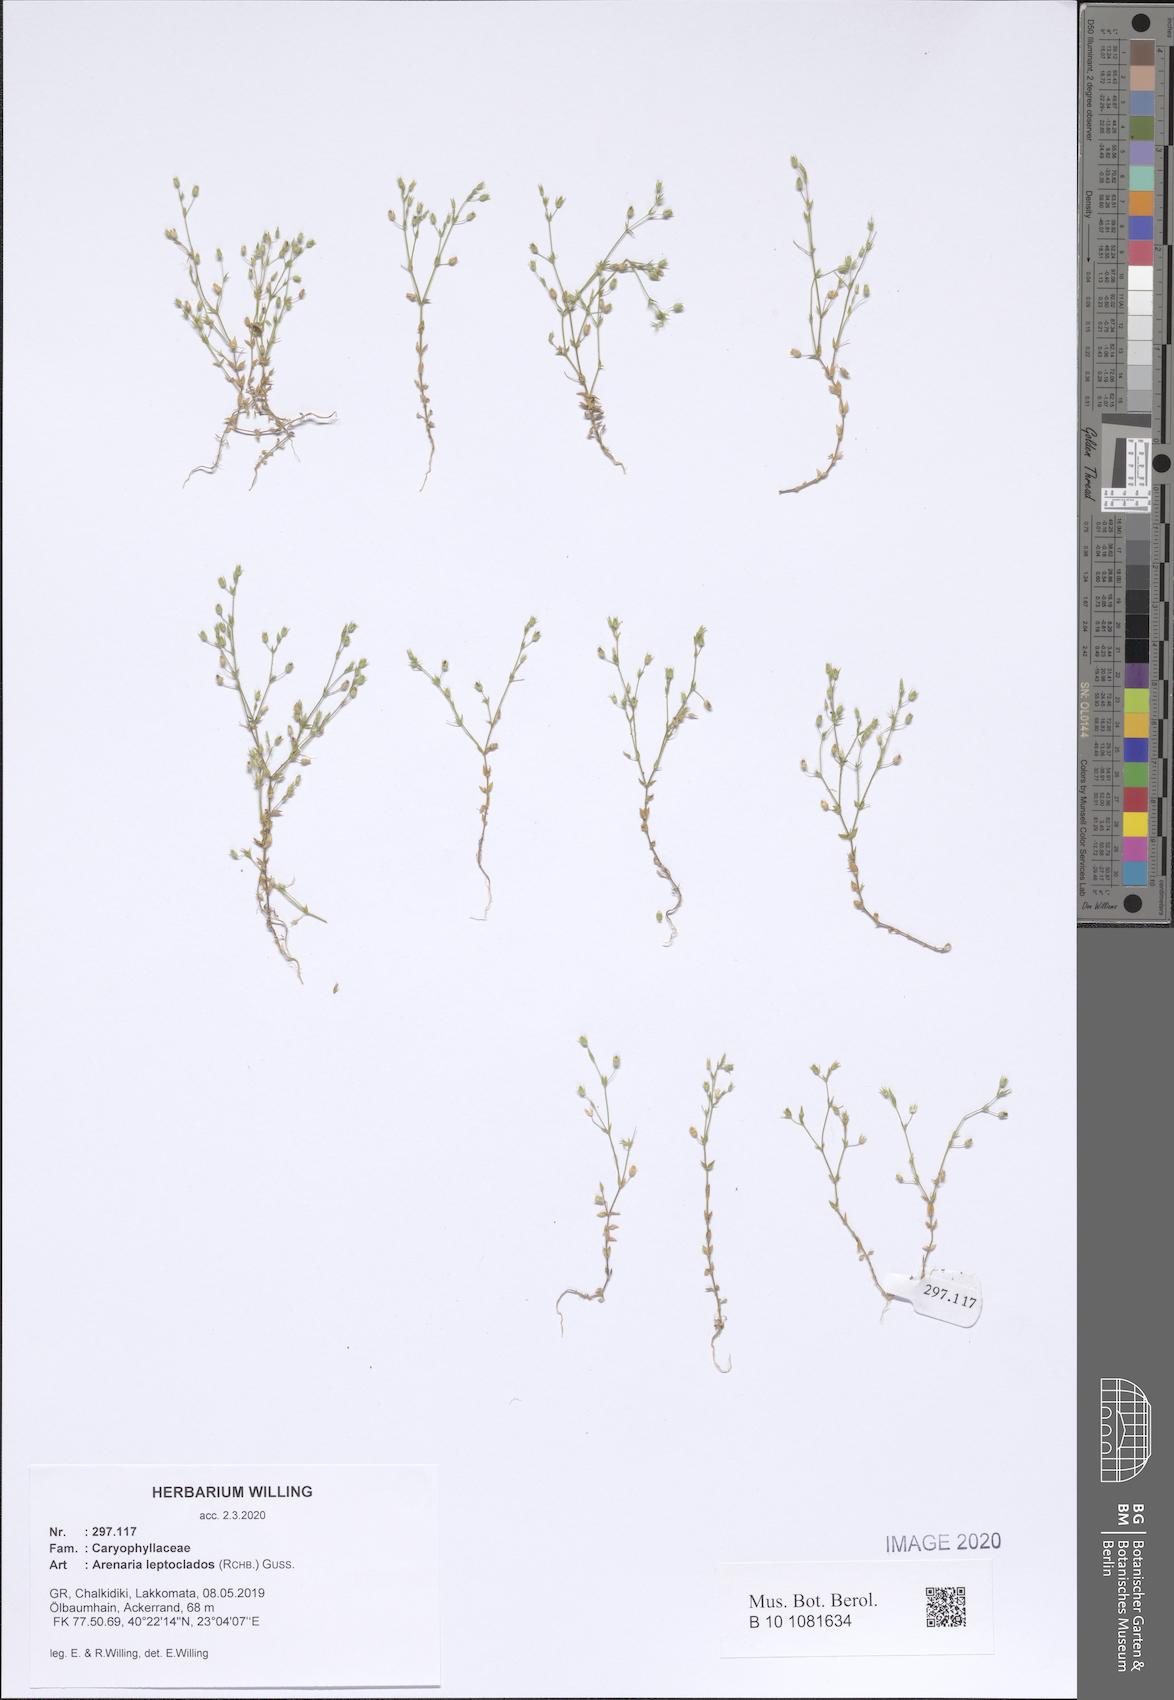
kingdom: Plantae
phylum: Tracheophyta
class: Magnoliopsida
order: Caryophyllales
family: Caryophyllaceae
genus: Arenaria
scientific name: Arenaria leptoclados
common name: Thyme-leaved sandwort
